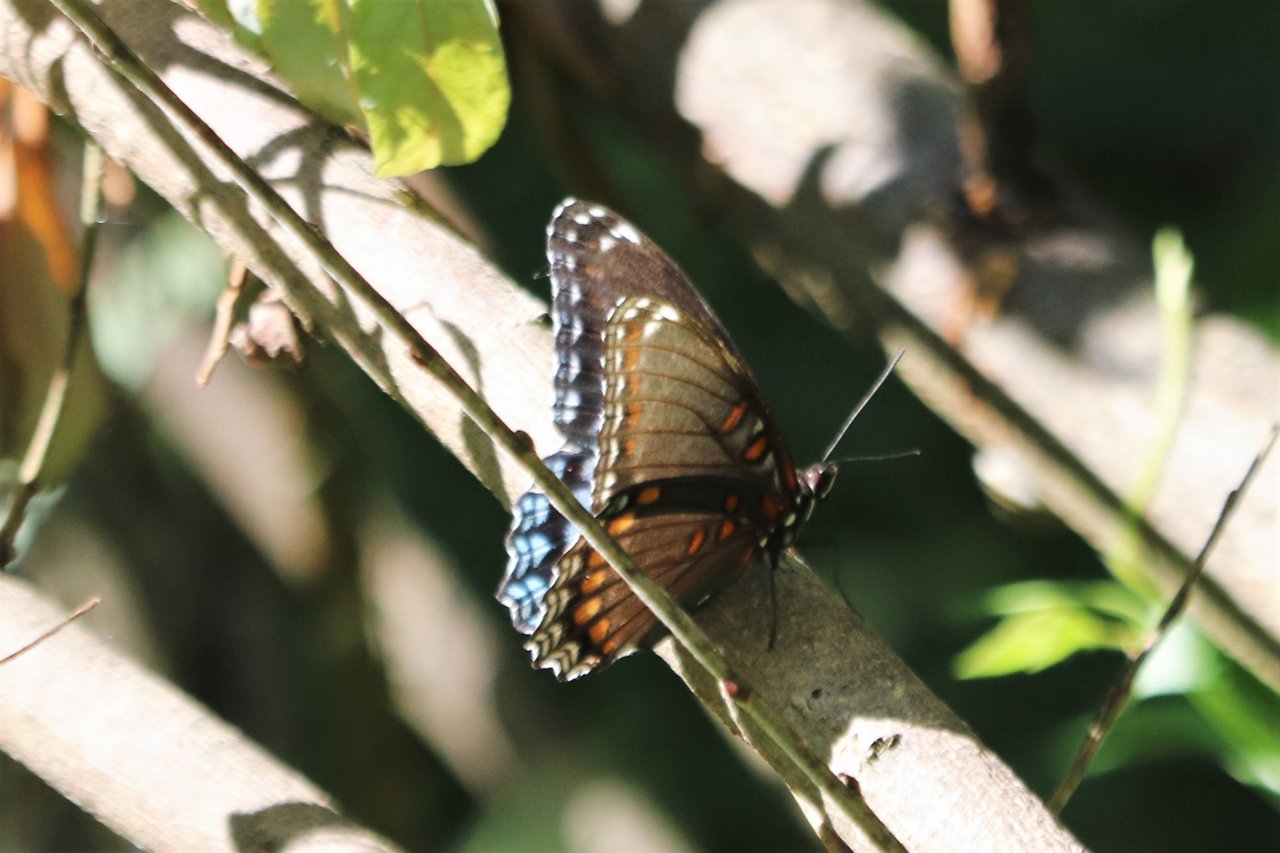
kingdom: Animalia
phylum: Arthropoda
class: Insecta
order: Lepidoptera
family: Nymphalidae
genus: Limenitis
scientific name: Limenitis arthemis
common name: Red-spotted Admiral
